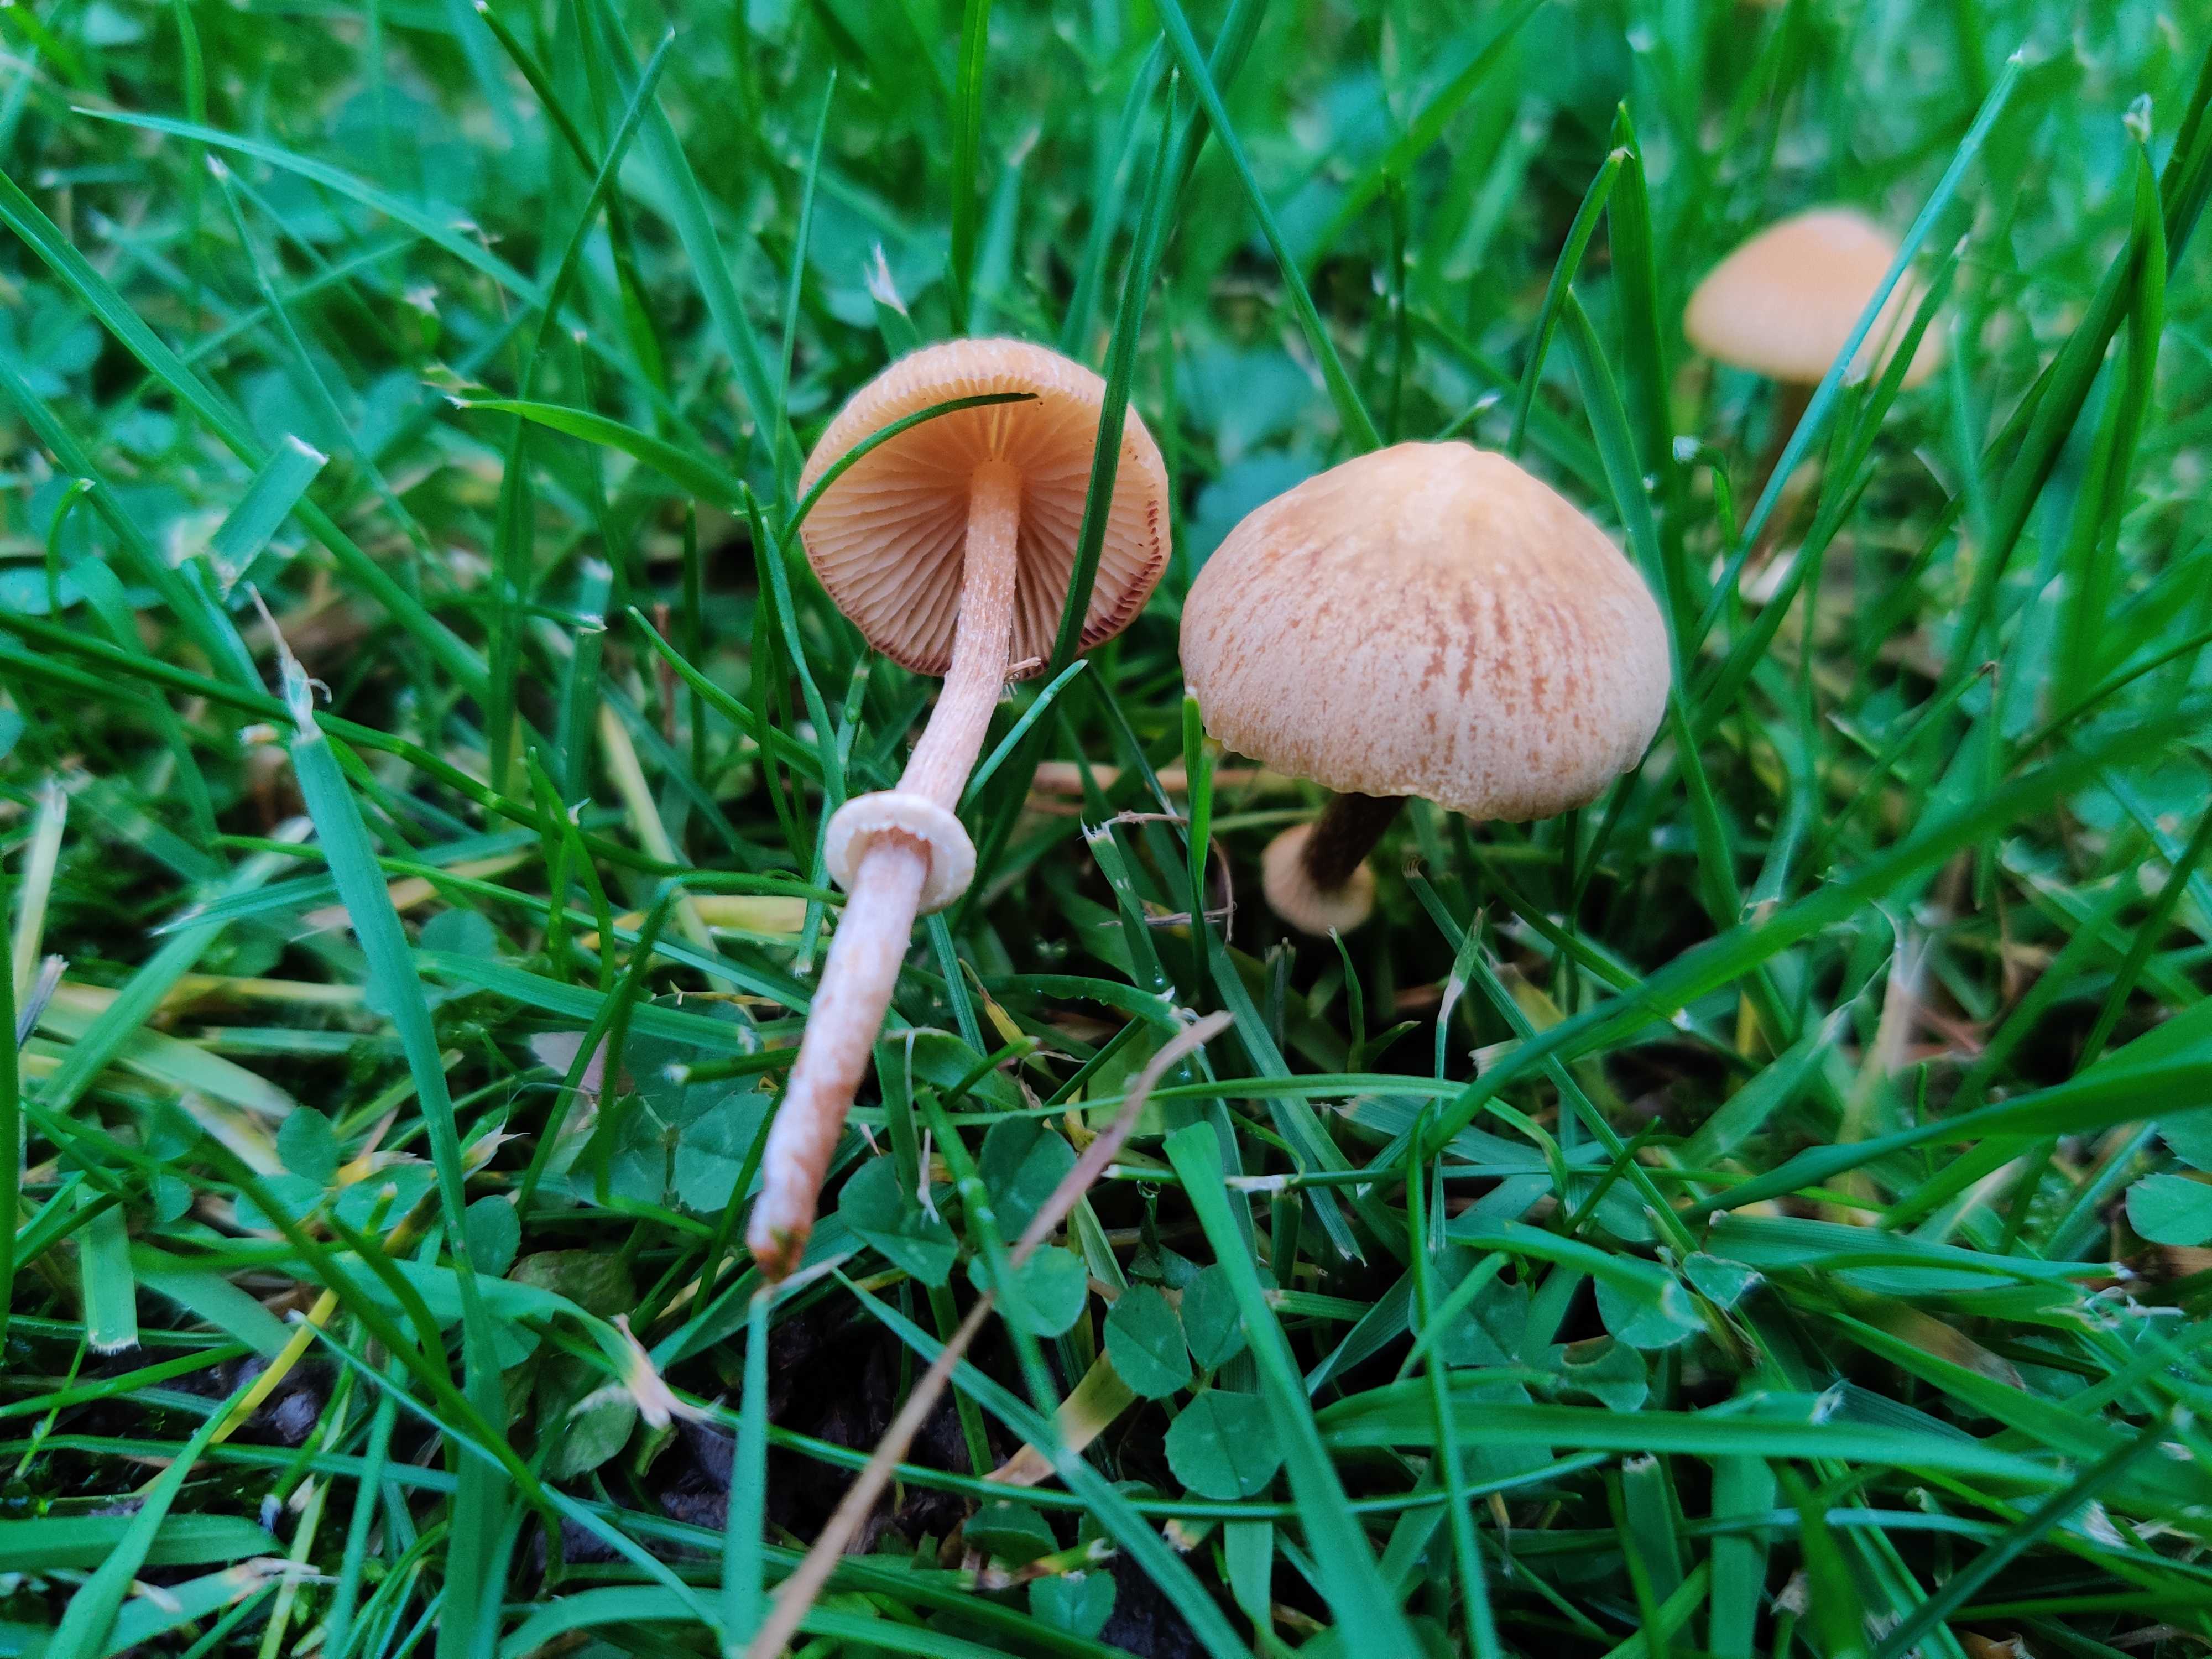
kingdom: Fungi
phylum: Basidiomycota
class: Agaricomycetes
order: Agaricales
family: Bolbitiaceae
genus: Pholiotina
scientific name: Pholiotina
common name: dansehat
